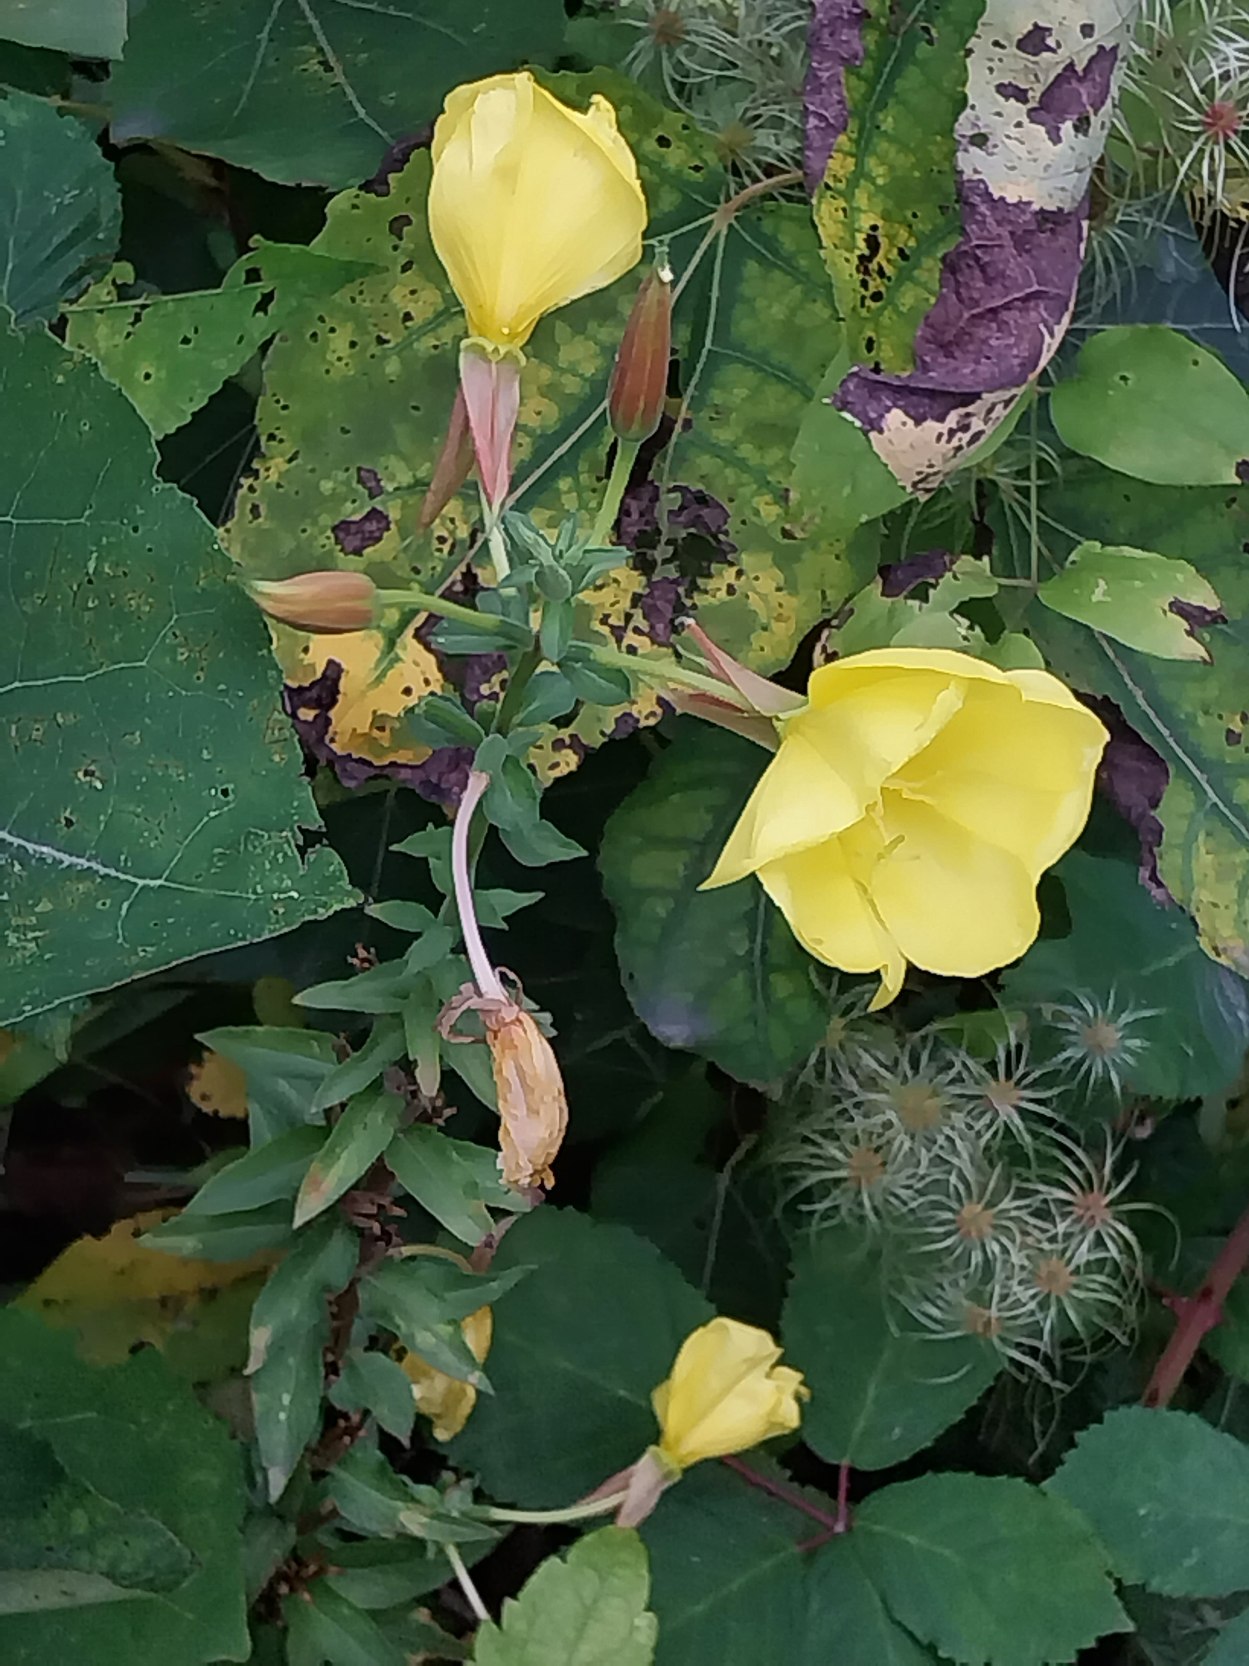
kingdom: Plantae
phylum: Tracheophyta
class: Magnoliopsida
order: Myrtales
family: Onagraceae
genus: Oenothera
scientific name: Oenothera glazioviana
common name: Kæmpe-natlys
